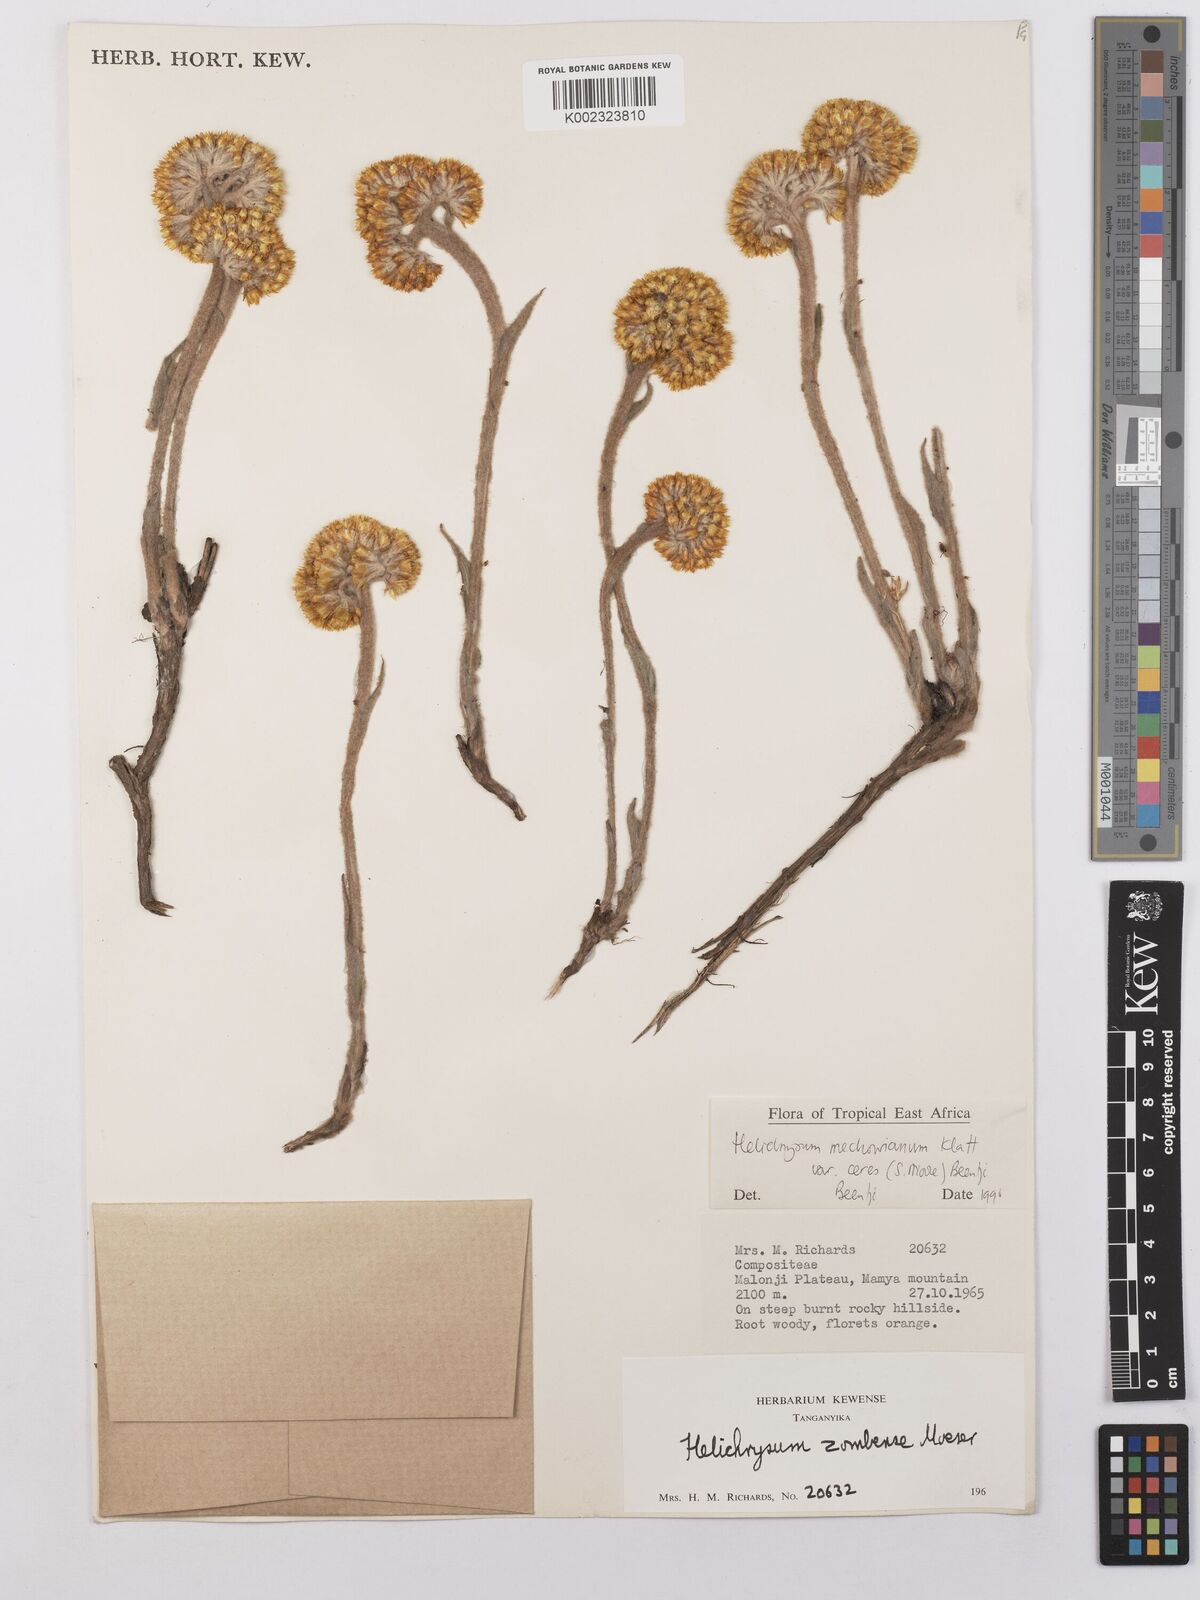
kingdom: Plantae
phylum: Tracheophyta
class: Magnoliopsida
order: Asterales
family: Asteraceae
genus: Helichrysum
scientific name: Helichrysum mechowianum
